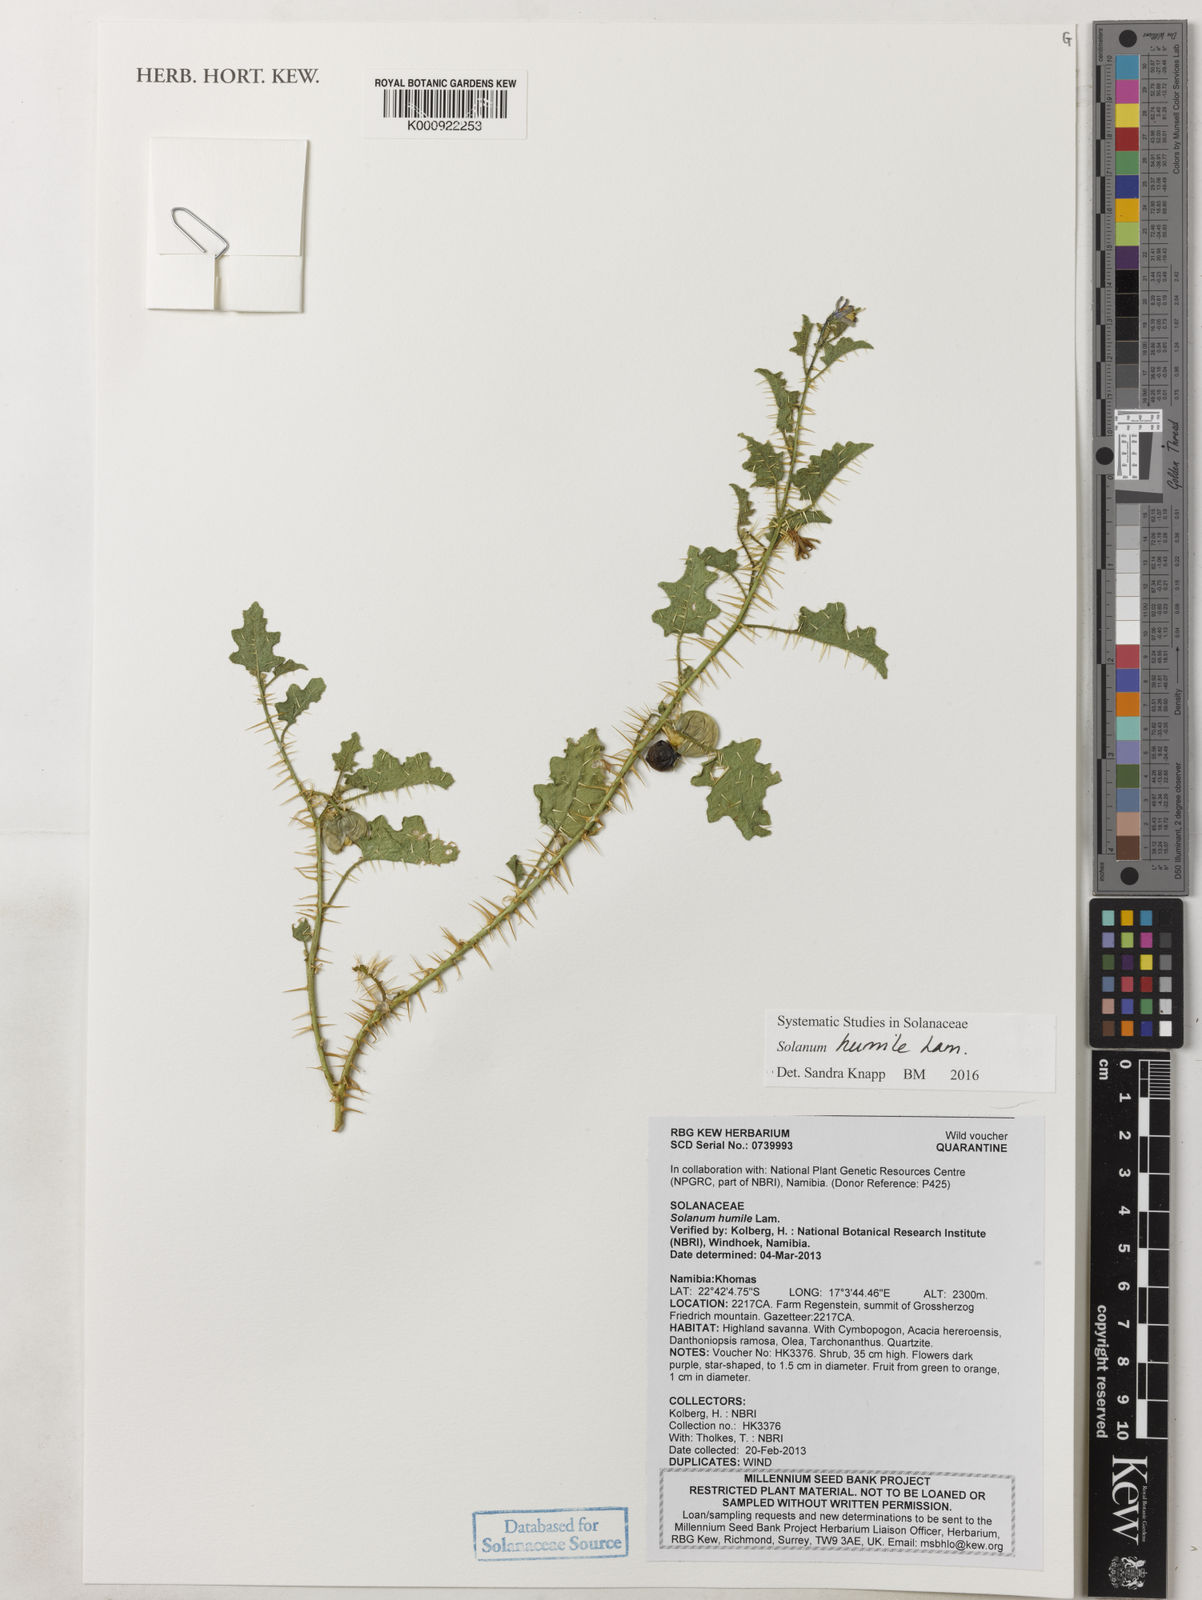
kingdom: Plantae
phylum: Tracheophyta
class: Magnoliopsida
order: Solanales
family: Solanaceae
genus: Solanum
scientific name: Solanum humile
